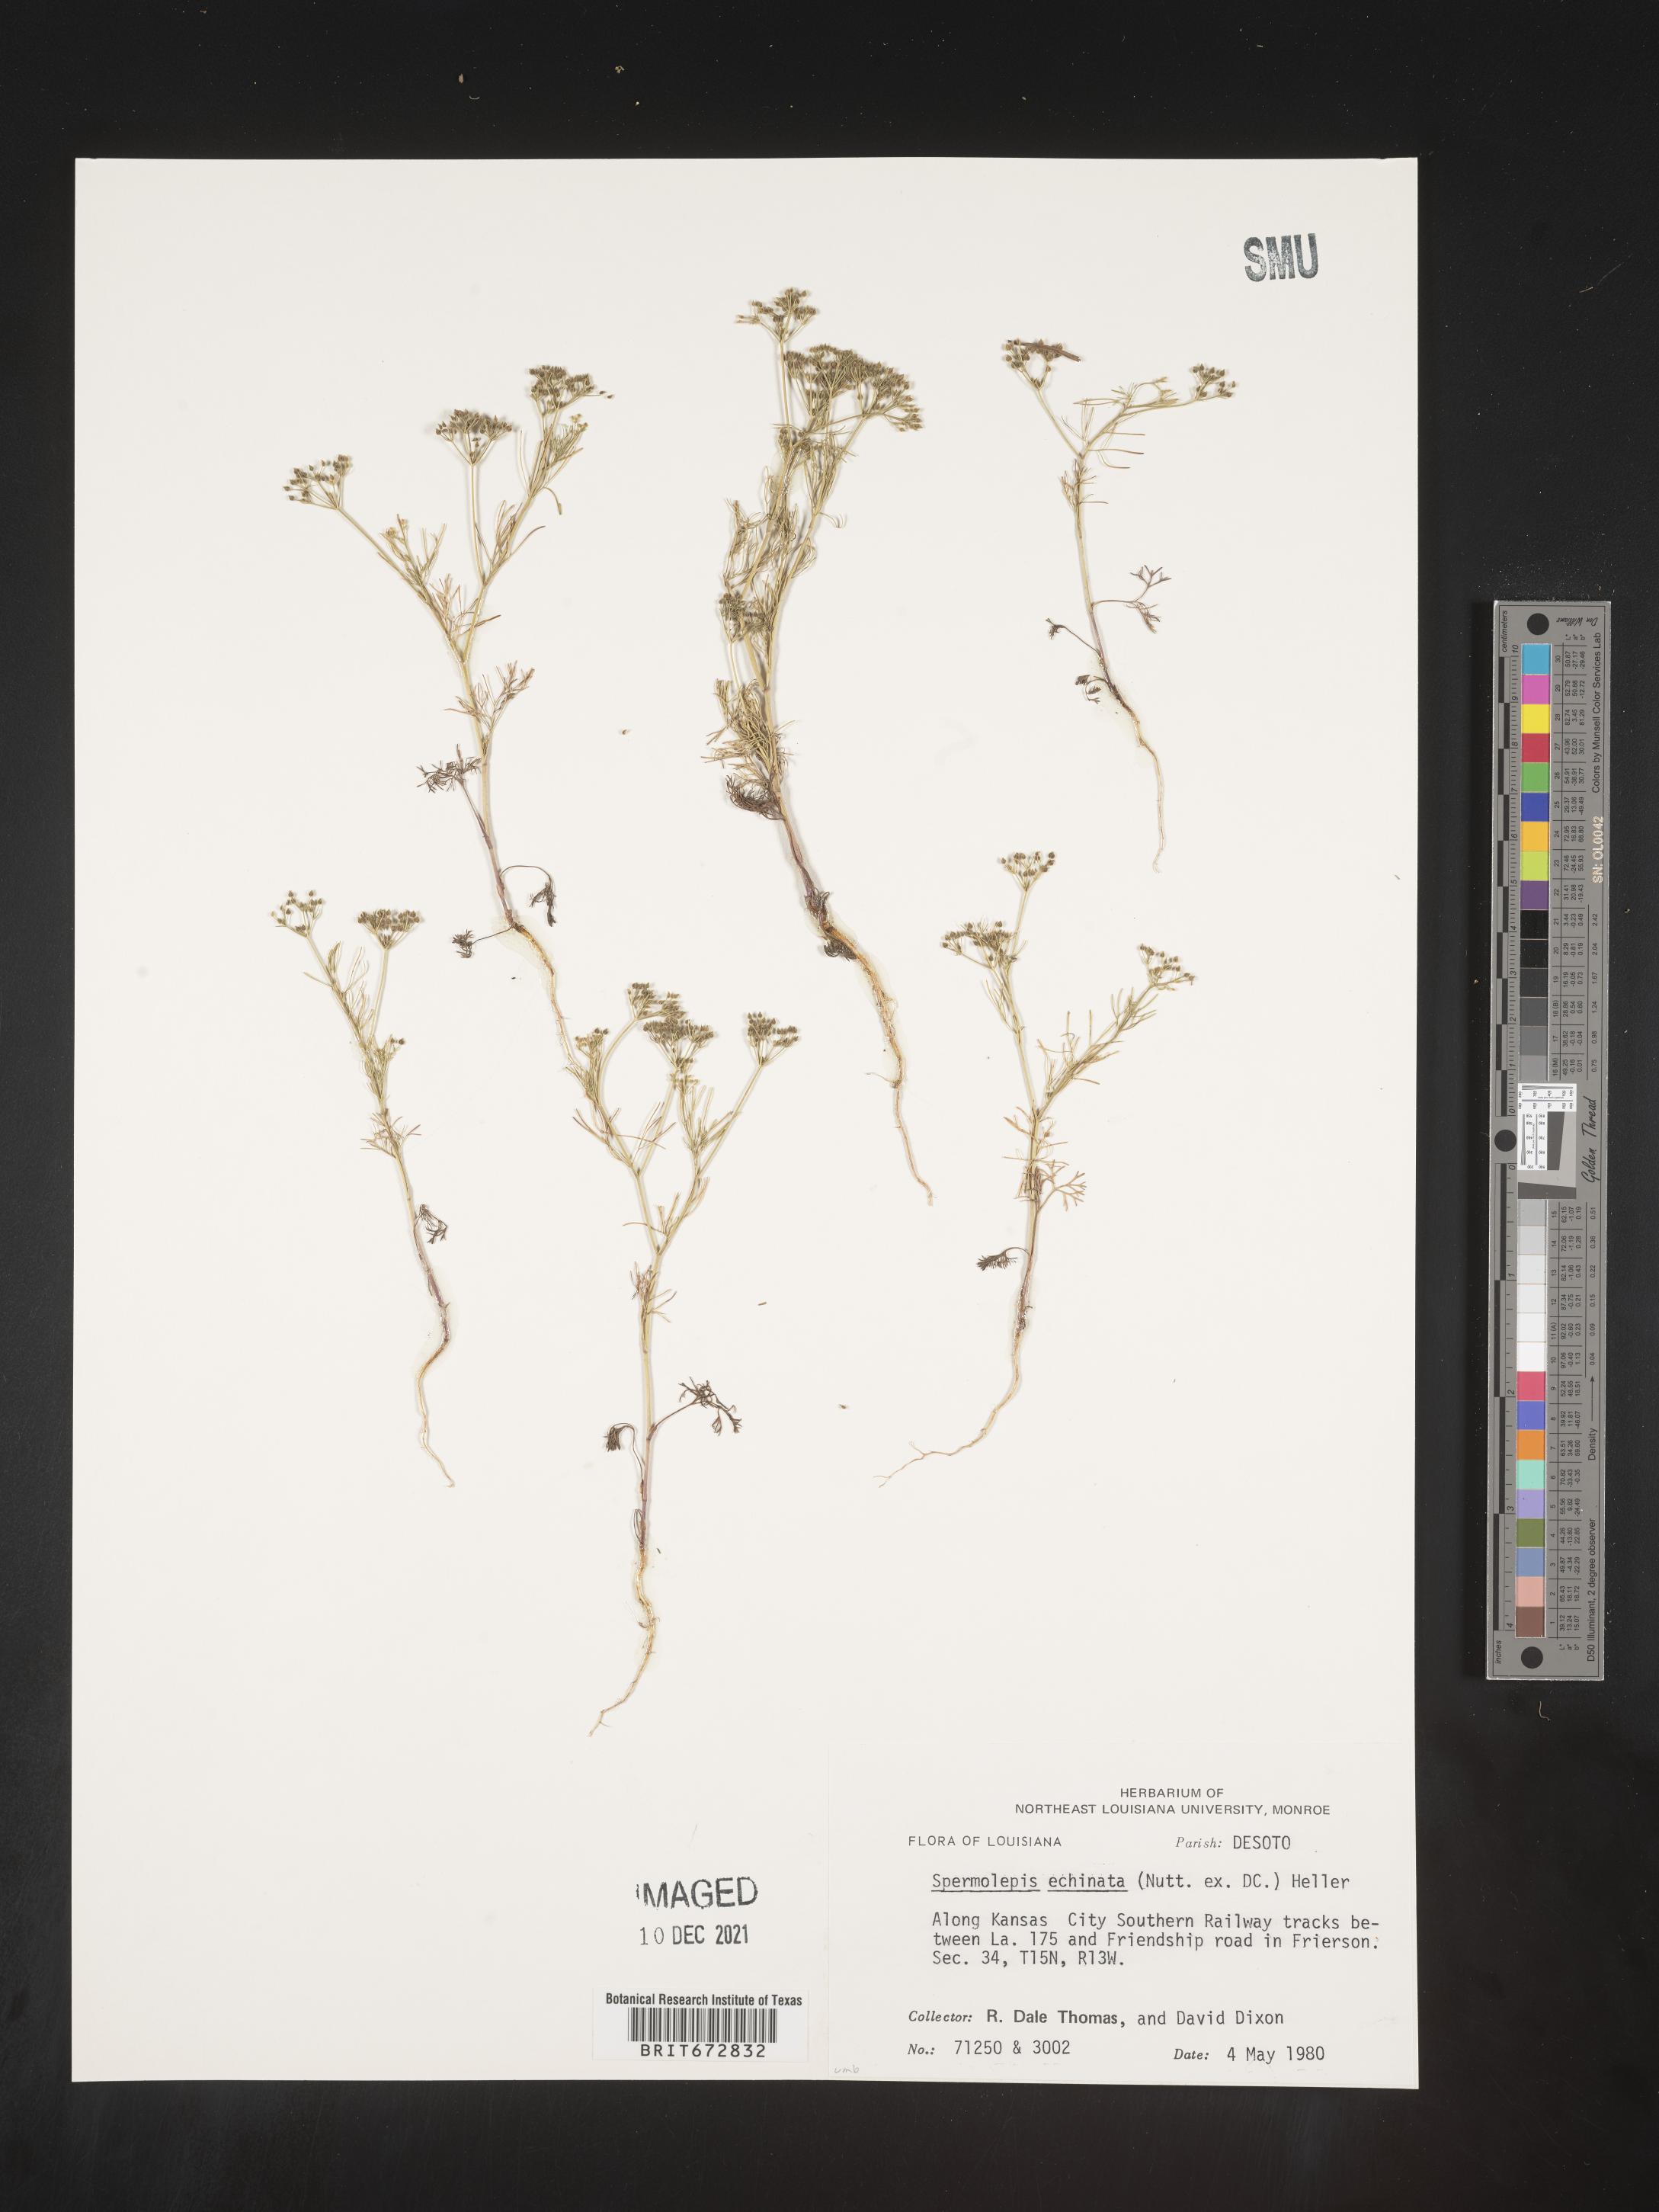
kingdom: Plantae
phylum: Tracheophyta
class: Magnoliopsida
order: Apiales
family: Apiaceae
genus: Spermolepis
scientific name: Spermolepis echinata
